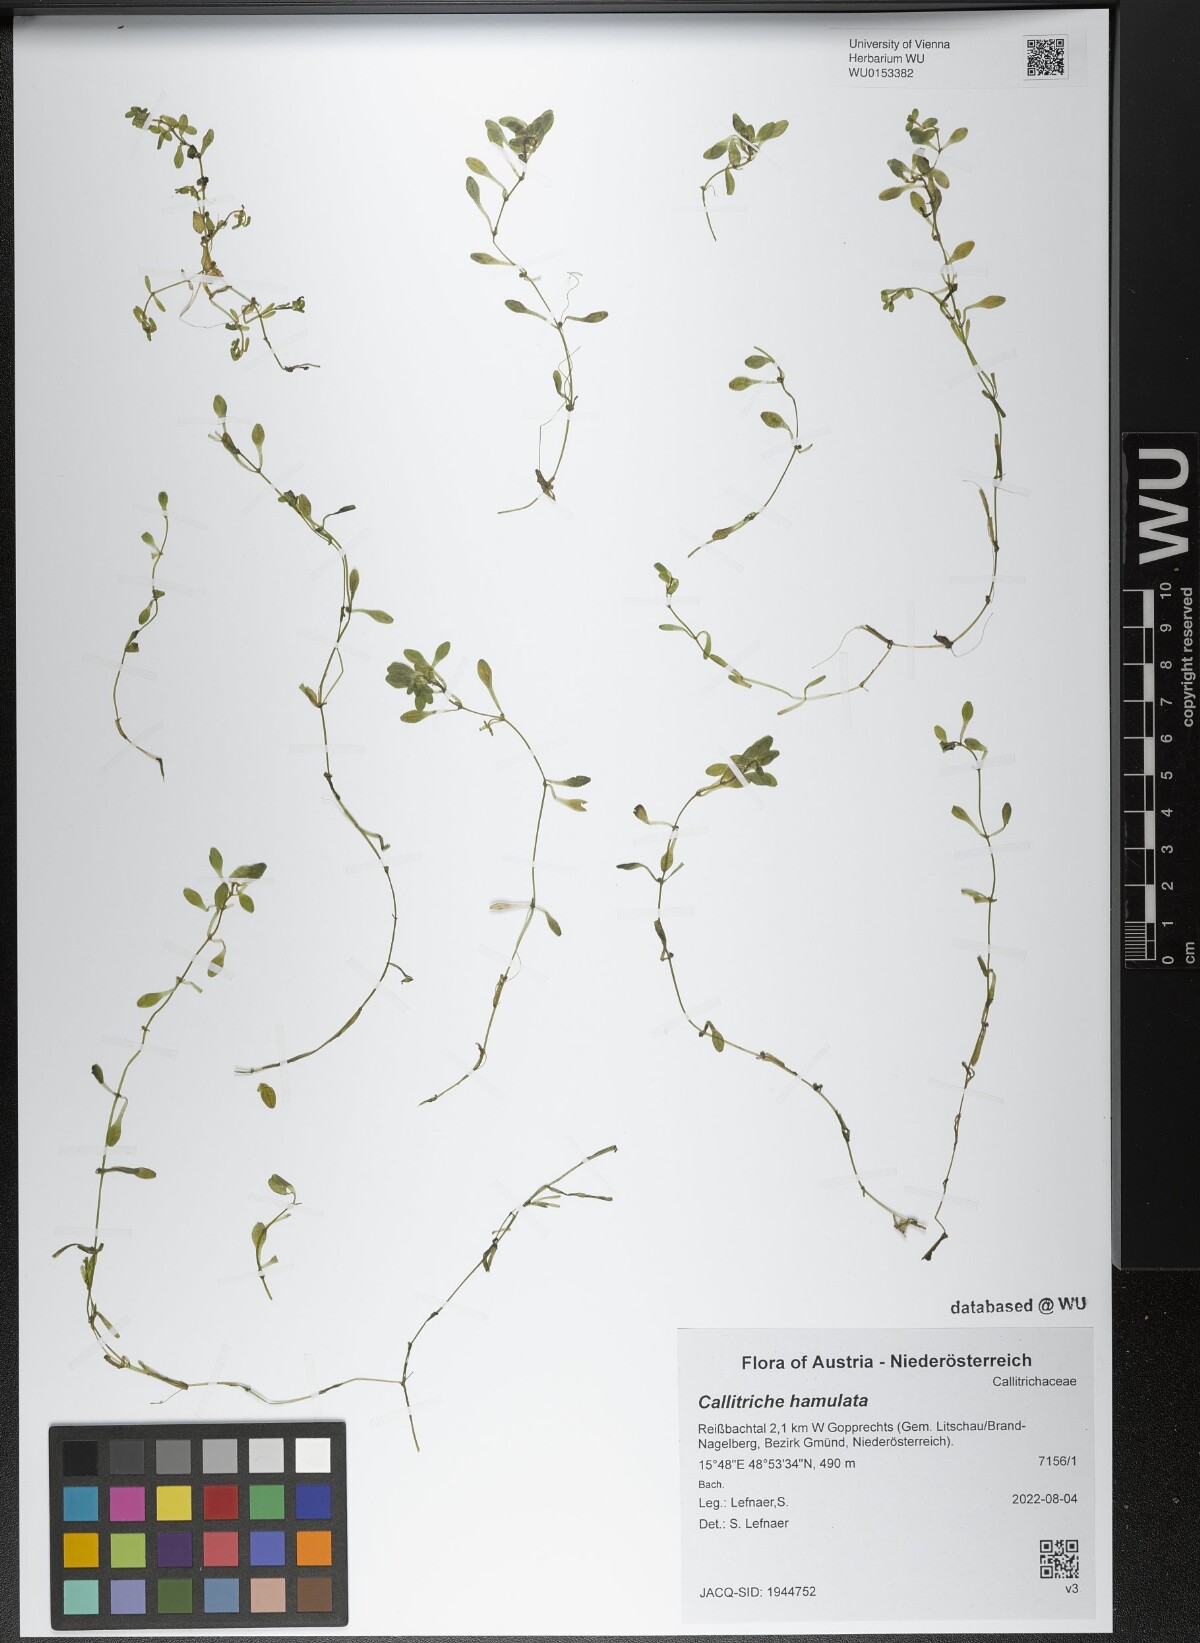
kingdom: Plantae
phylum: Tracheophyta
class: Magnoliopsida
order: Lamiales
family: Plantaginaceae
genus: Callitriche
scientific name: Callitriche hamulata
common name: Intermediate water-starwort
